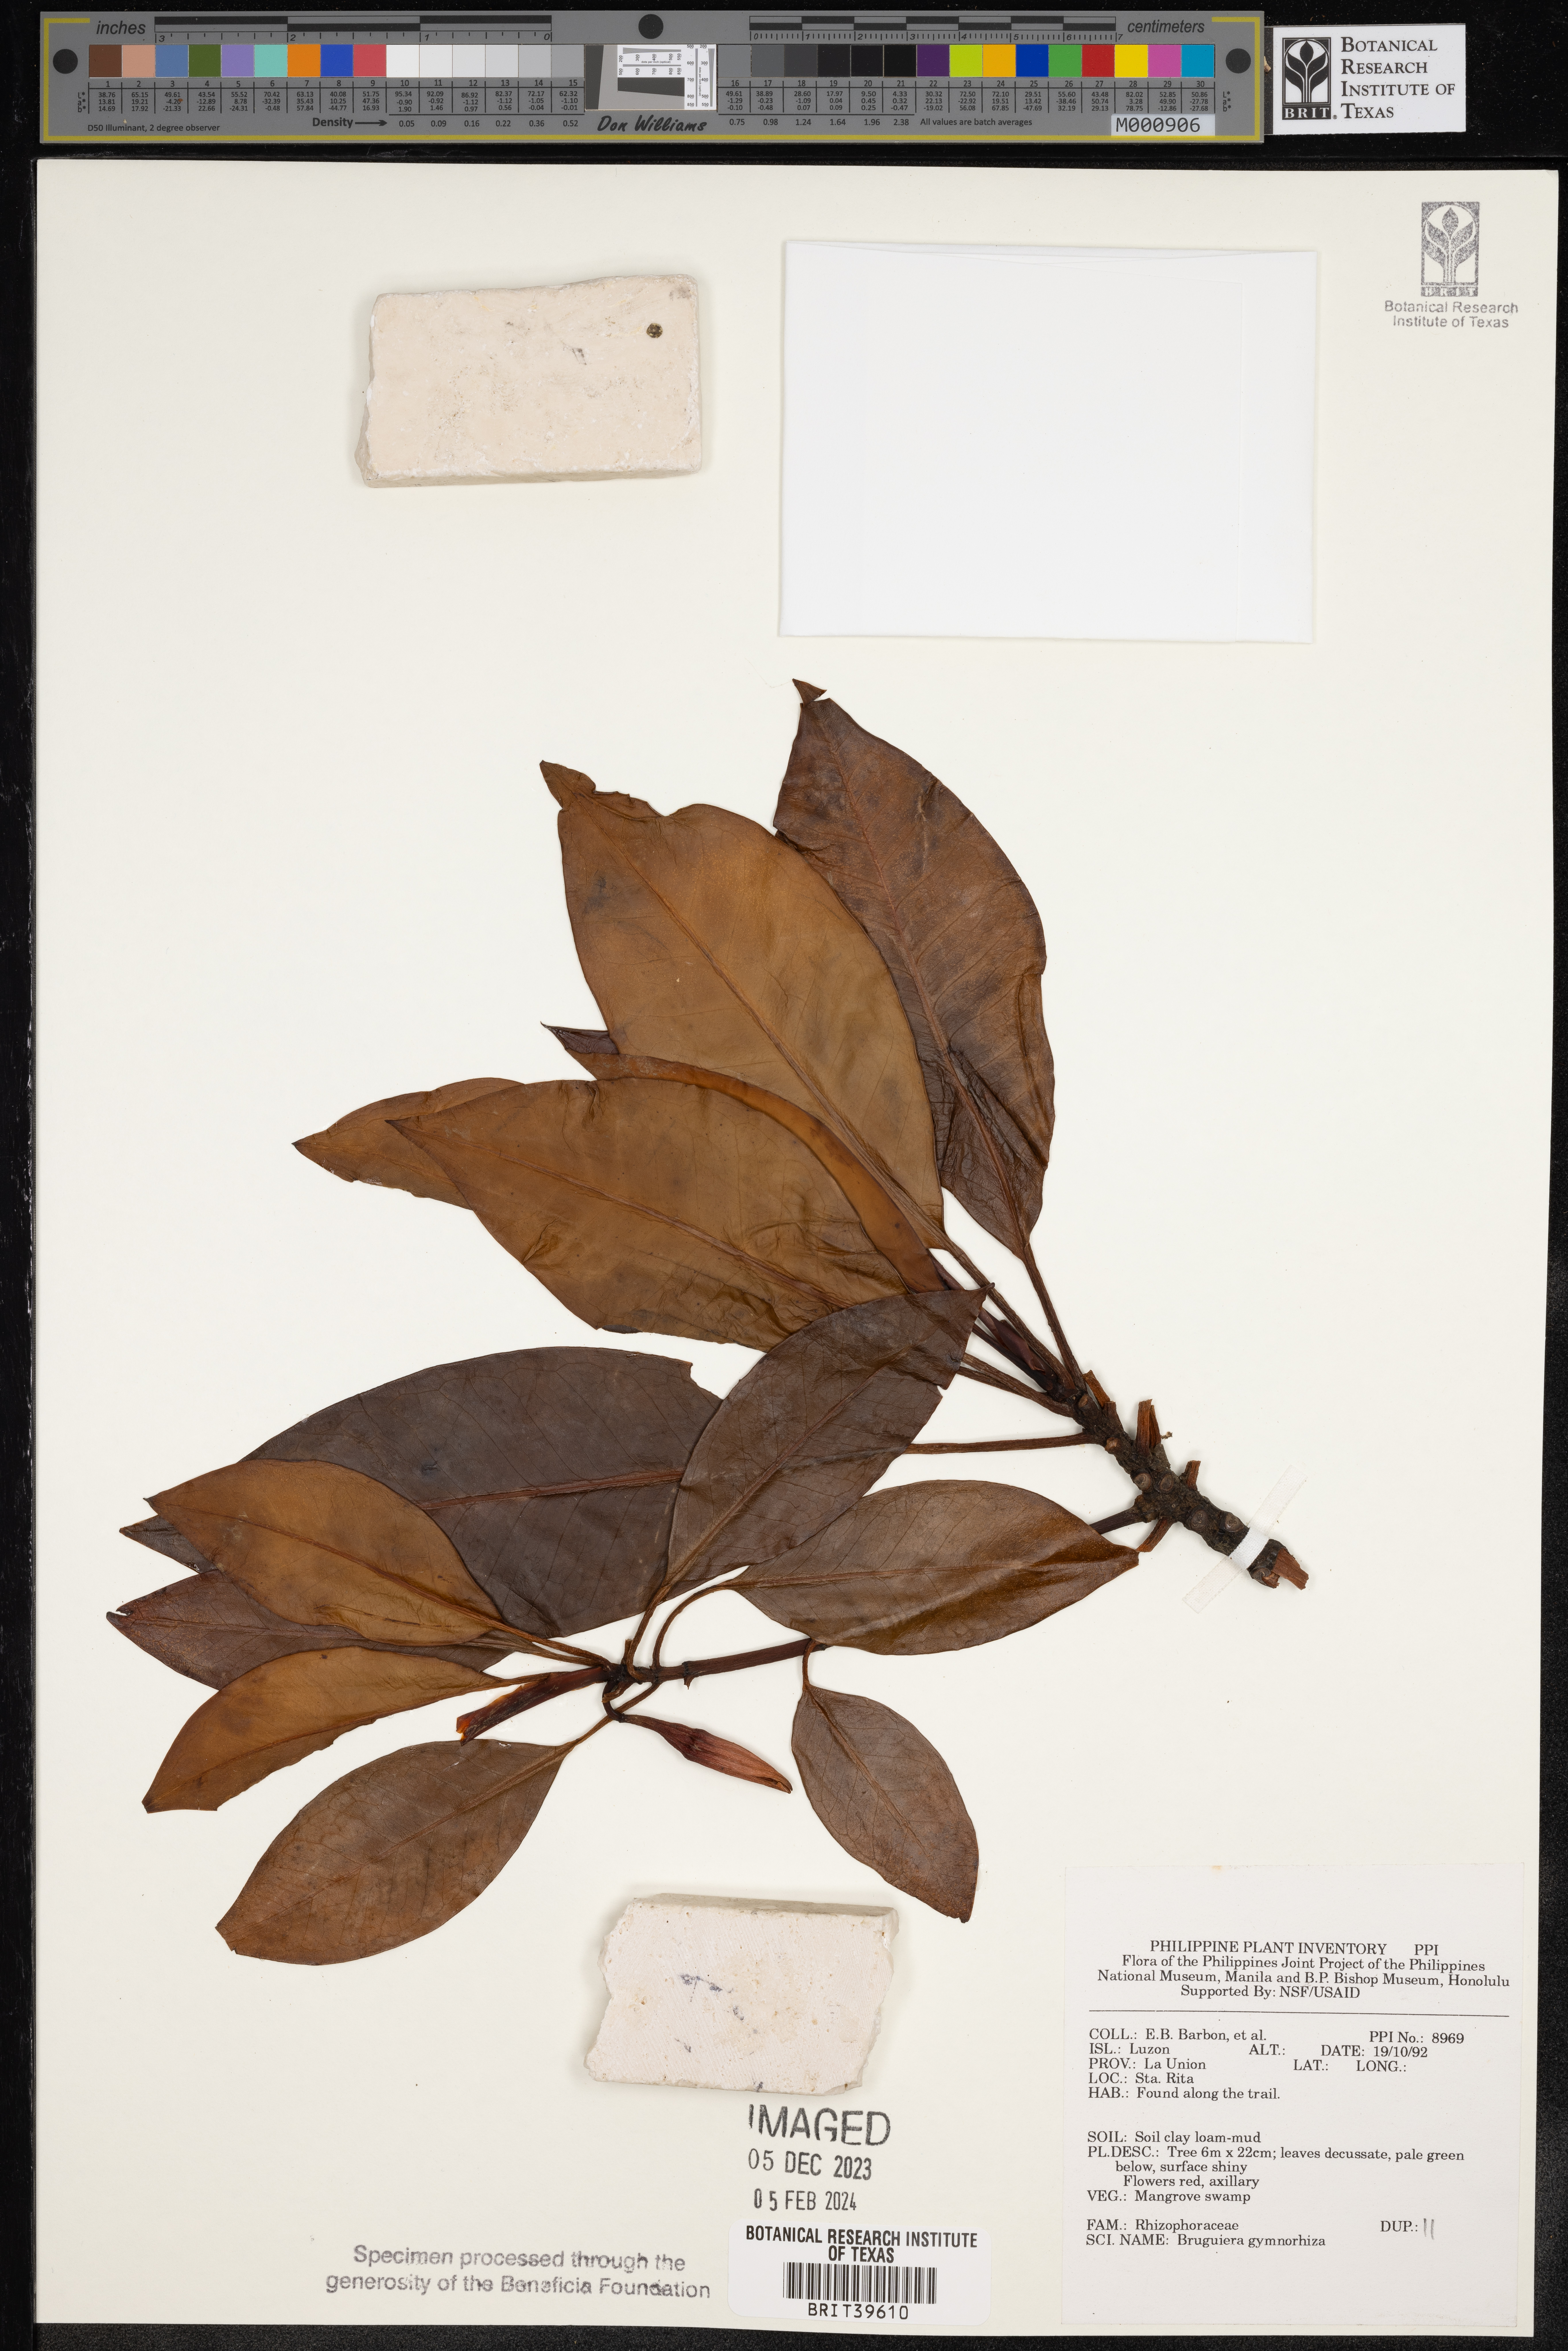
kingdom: Plantae
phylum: Tracheophyta
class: Magnoliopsida
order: Malpighiales
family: Rhizophoraceae
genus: Bruguiera
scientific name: Bruguiera gymnorhiza
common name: Oriental mangrove
